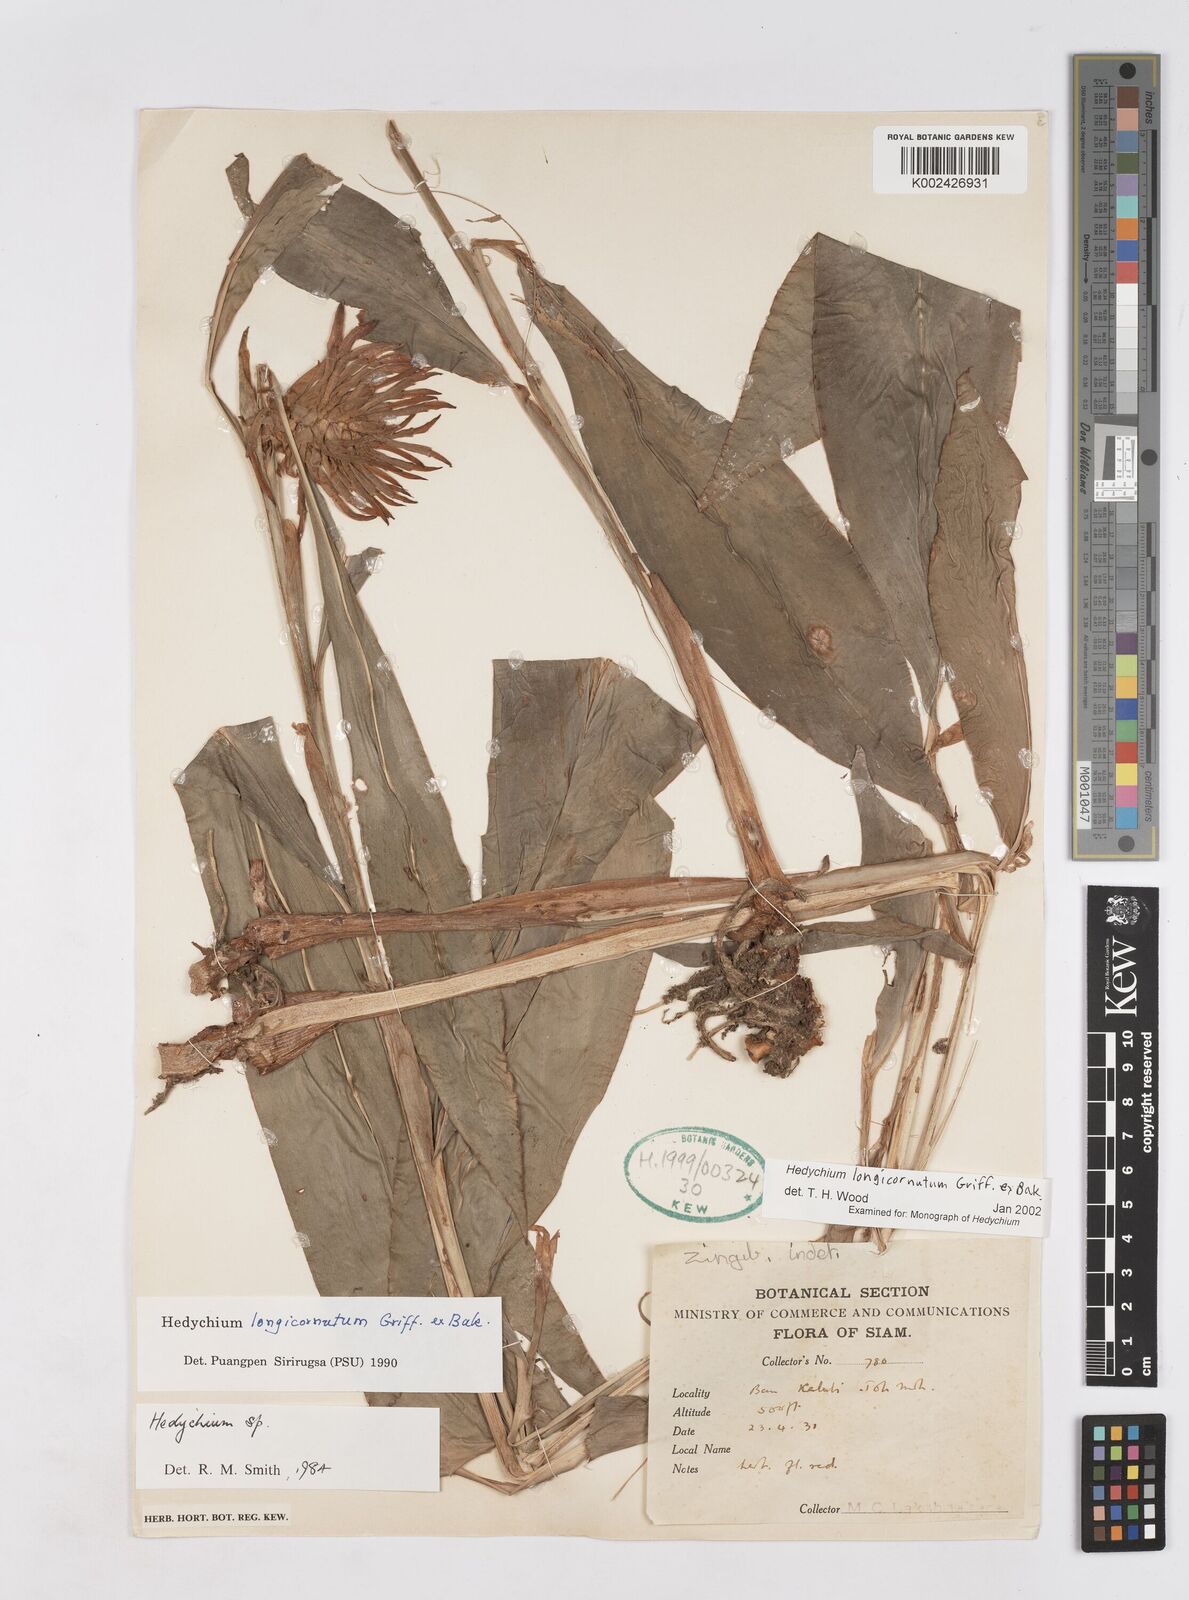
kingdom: Plantae
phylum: Tracheophyta
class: Liliopsida
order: Zingiberales
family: Zingiberaceae
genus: Hedychium
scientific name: Hedychium longicornutum
